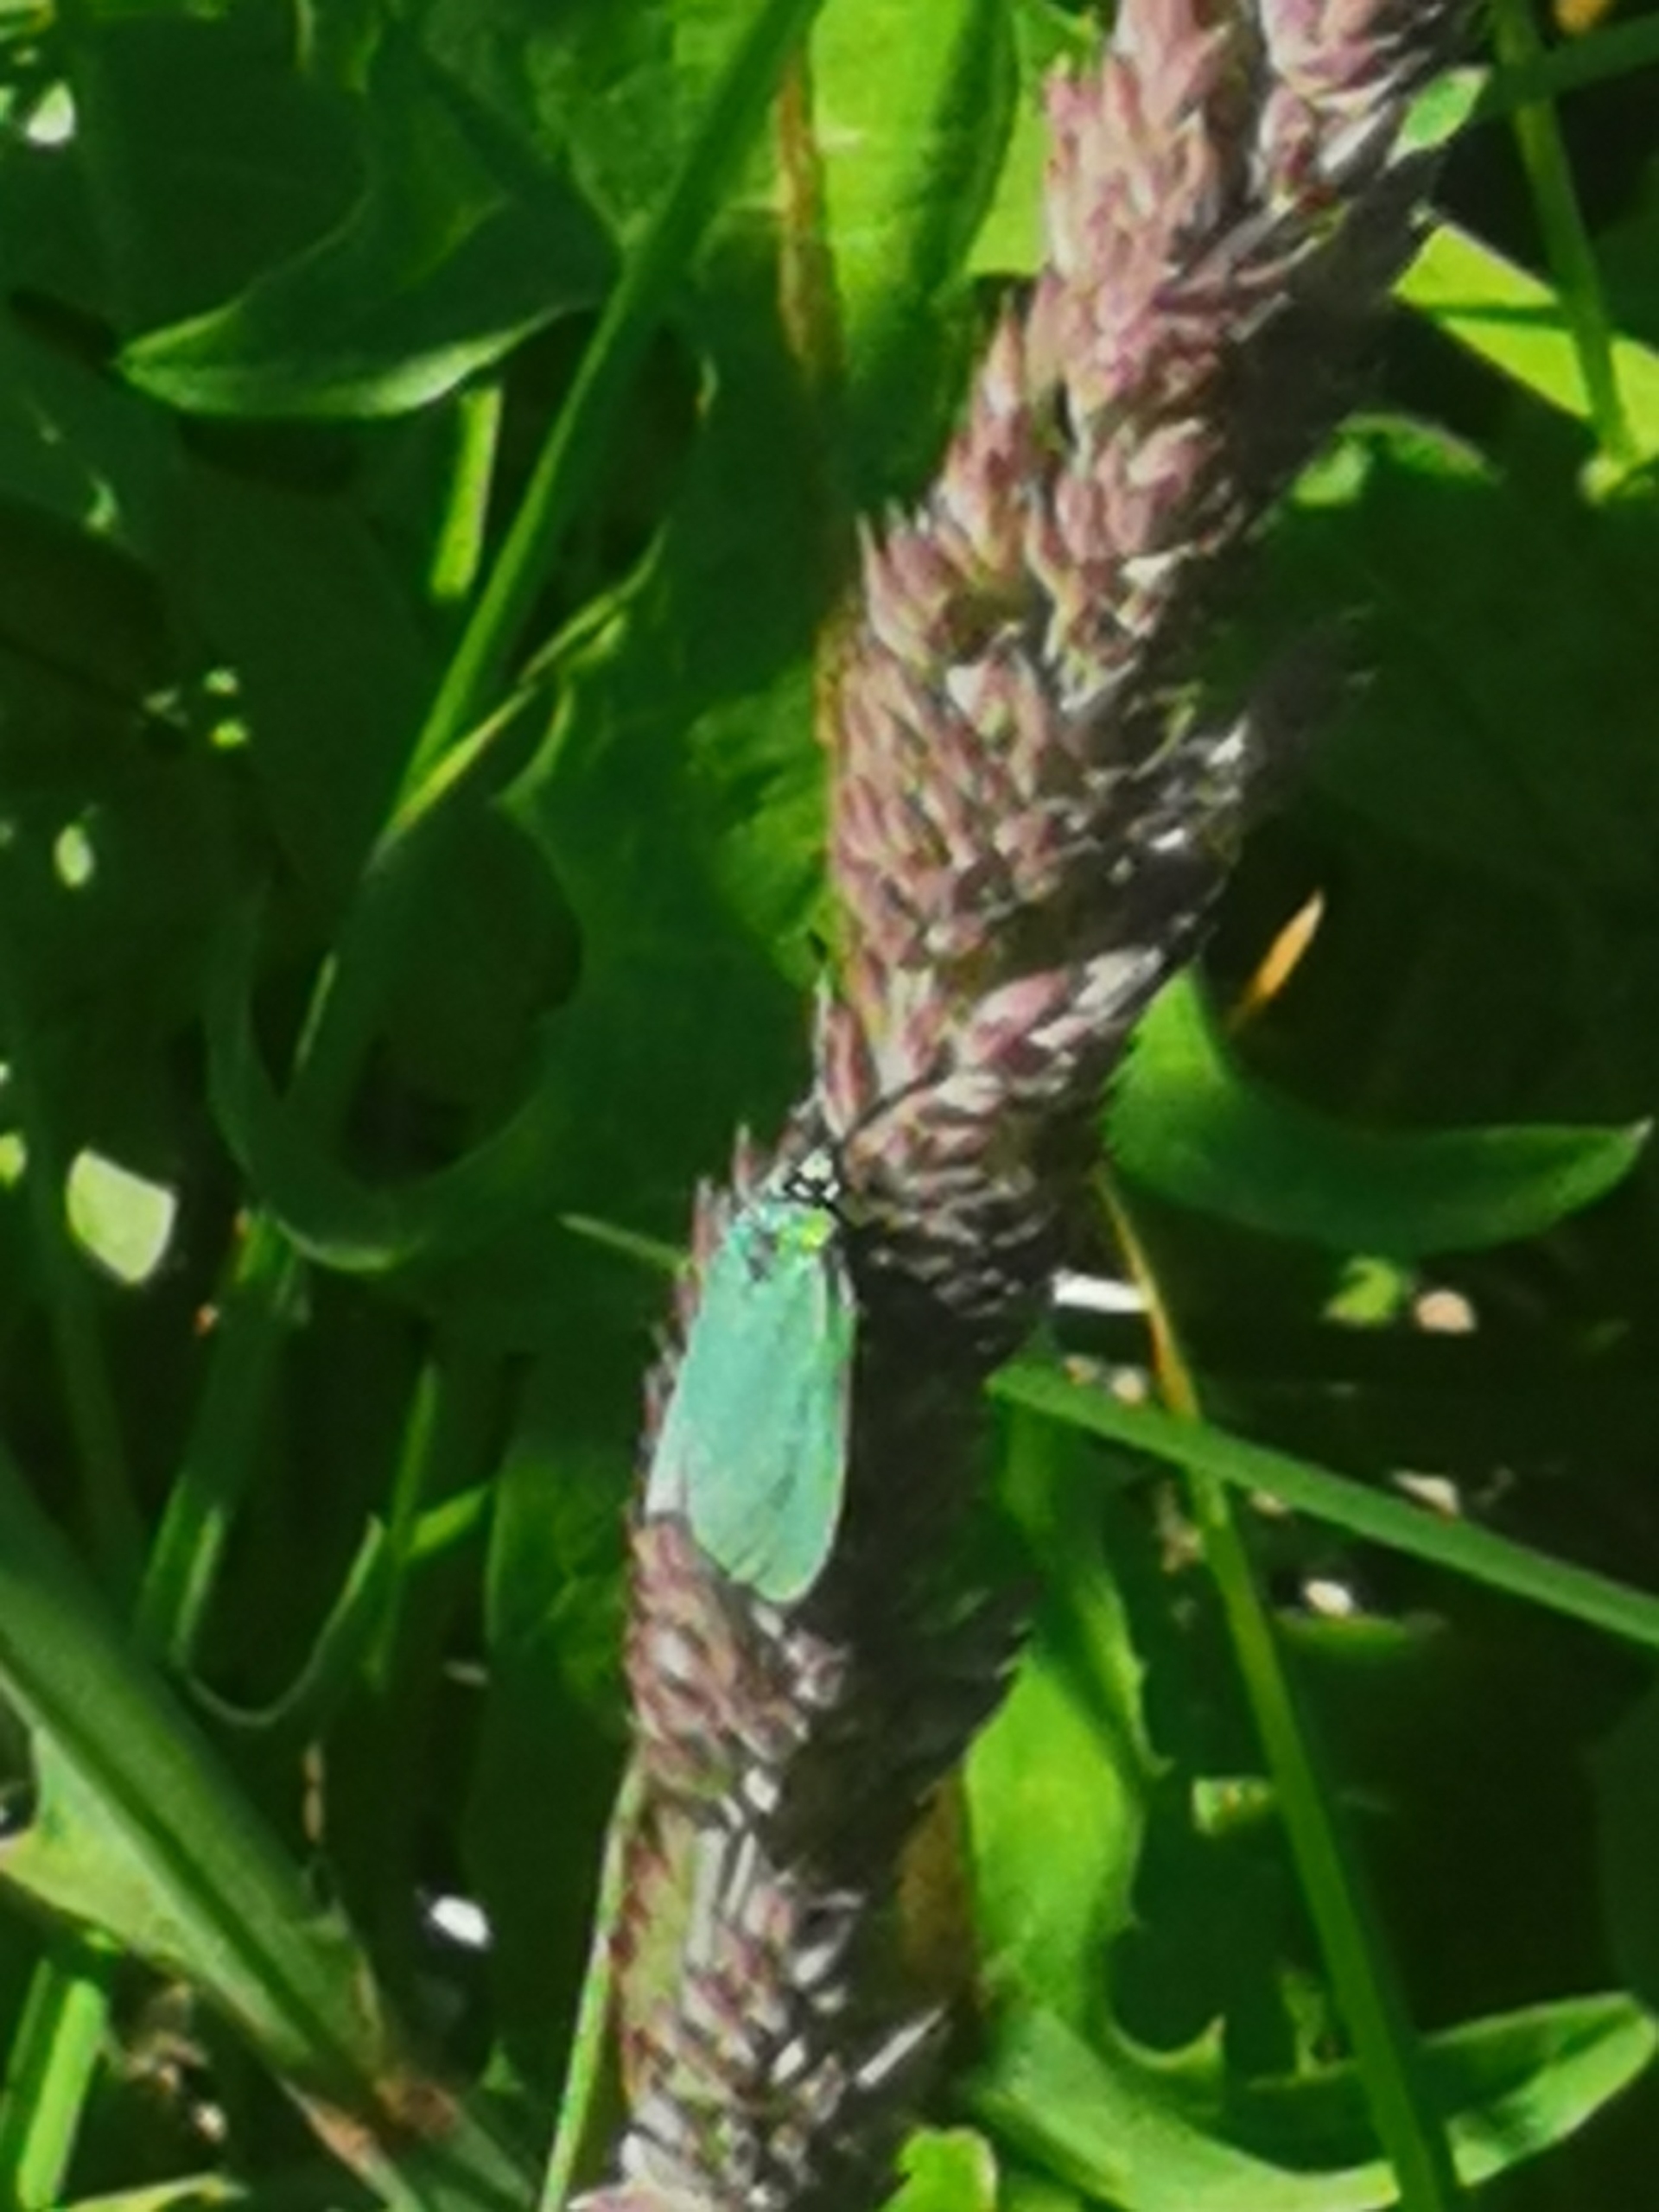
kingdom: Animalia
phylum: Arthropoda
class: Insecta
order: Lepidoptera
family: Zygaenidae
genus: Adscita
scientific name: Adscita statices
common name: Metalvinge
